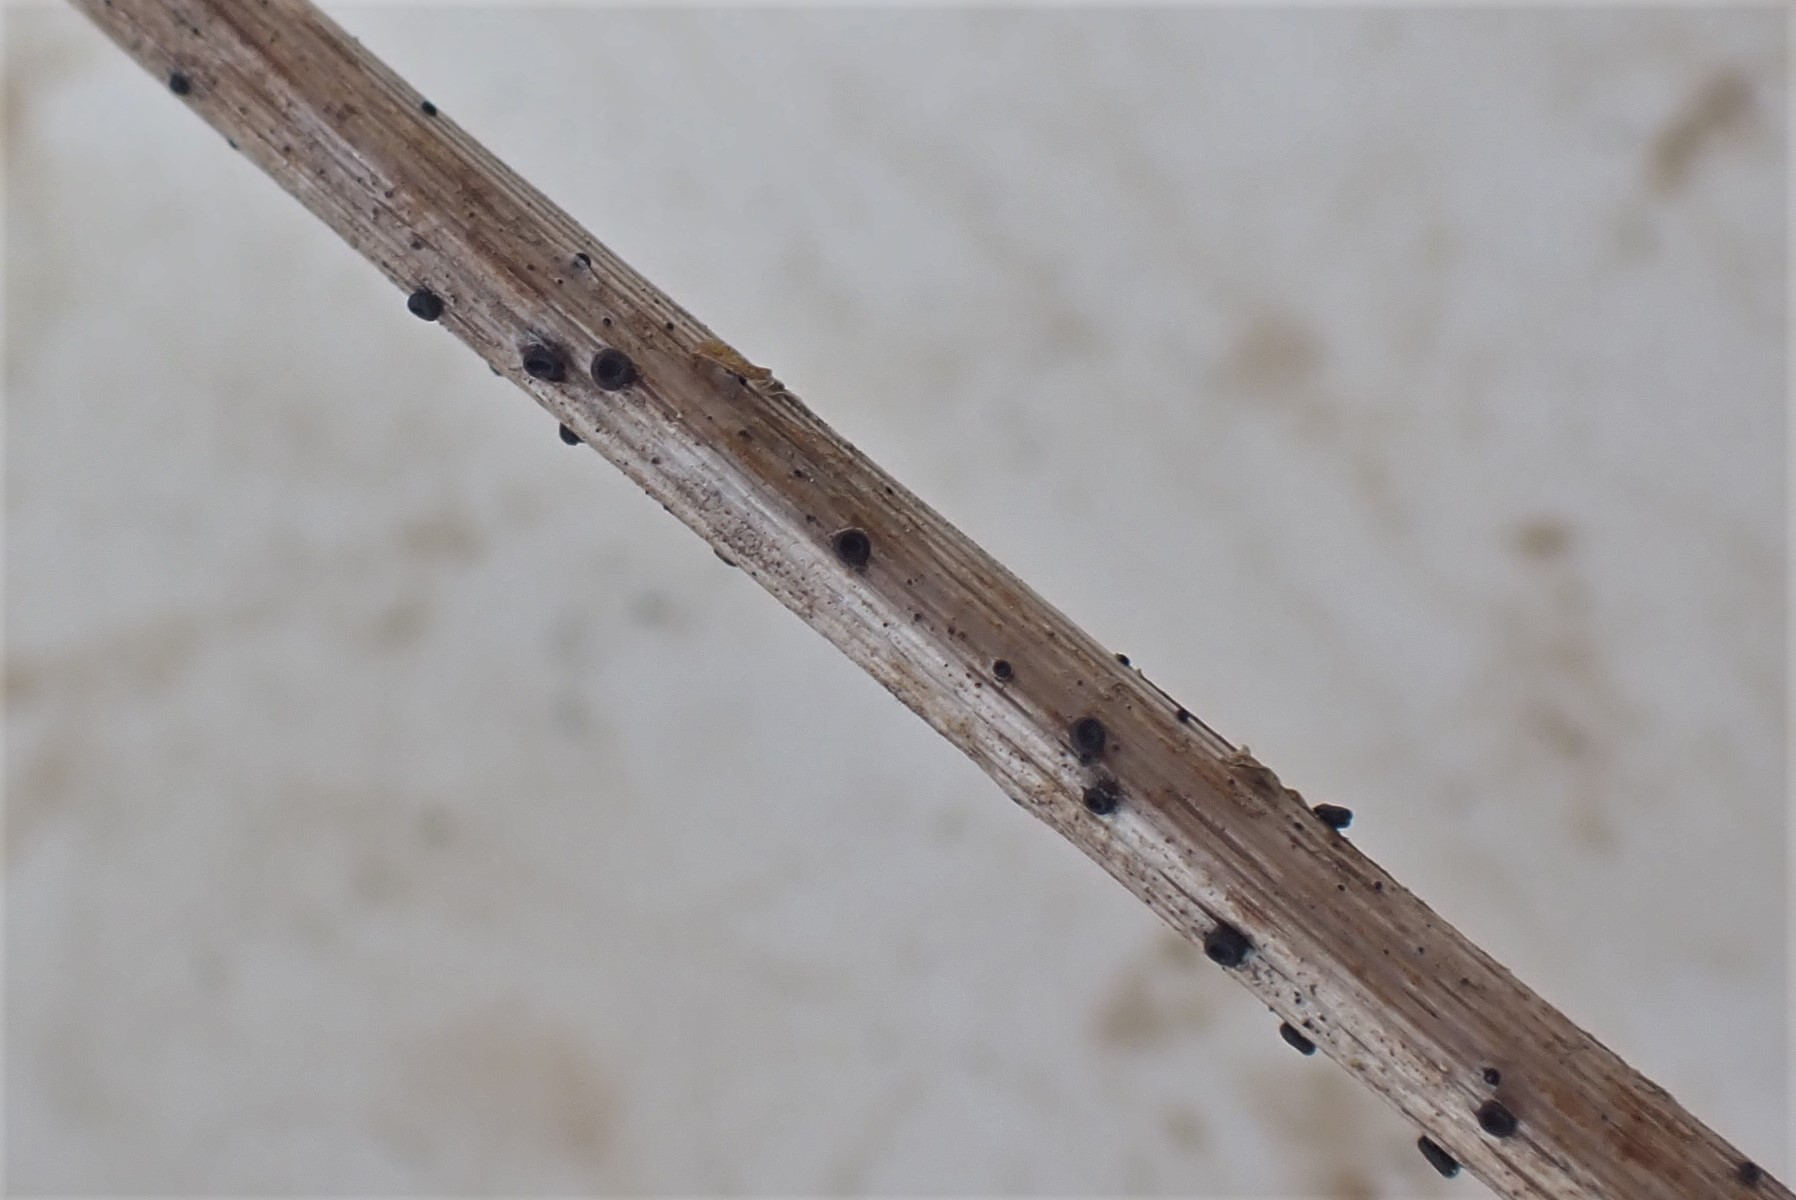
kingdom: Fungi
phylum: Ascomycota
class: Leotiomycetes
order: Helotiales
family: Heterosphaeriaceae
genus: Heterosphaeria
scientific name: Heterosphaeria
